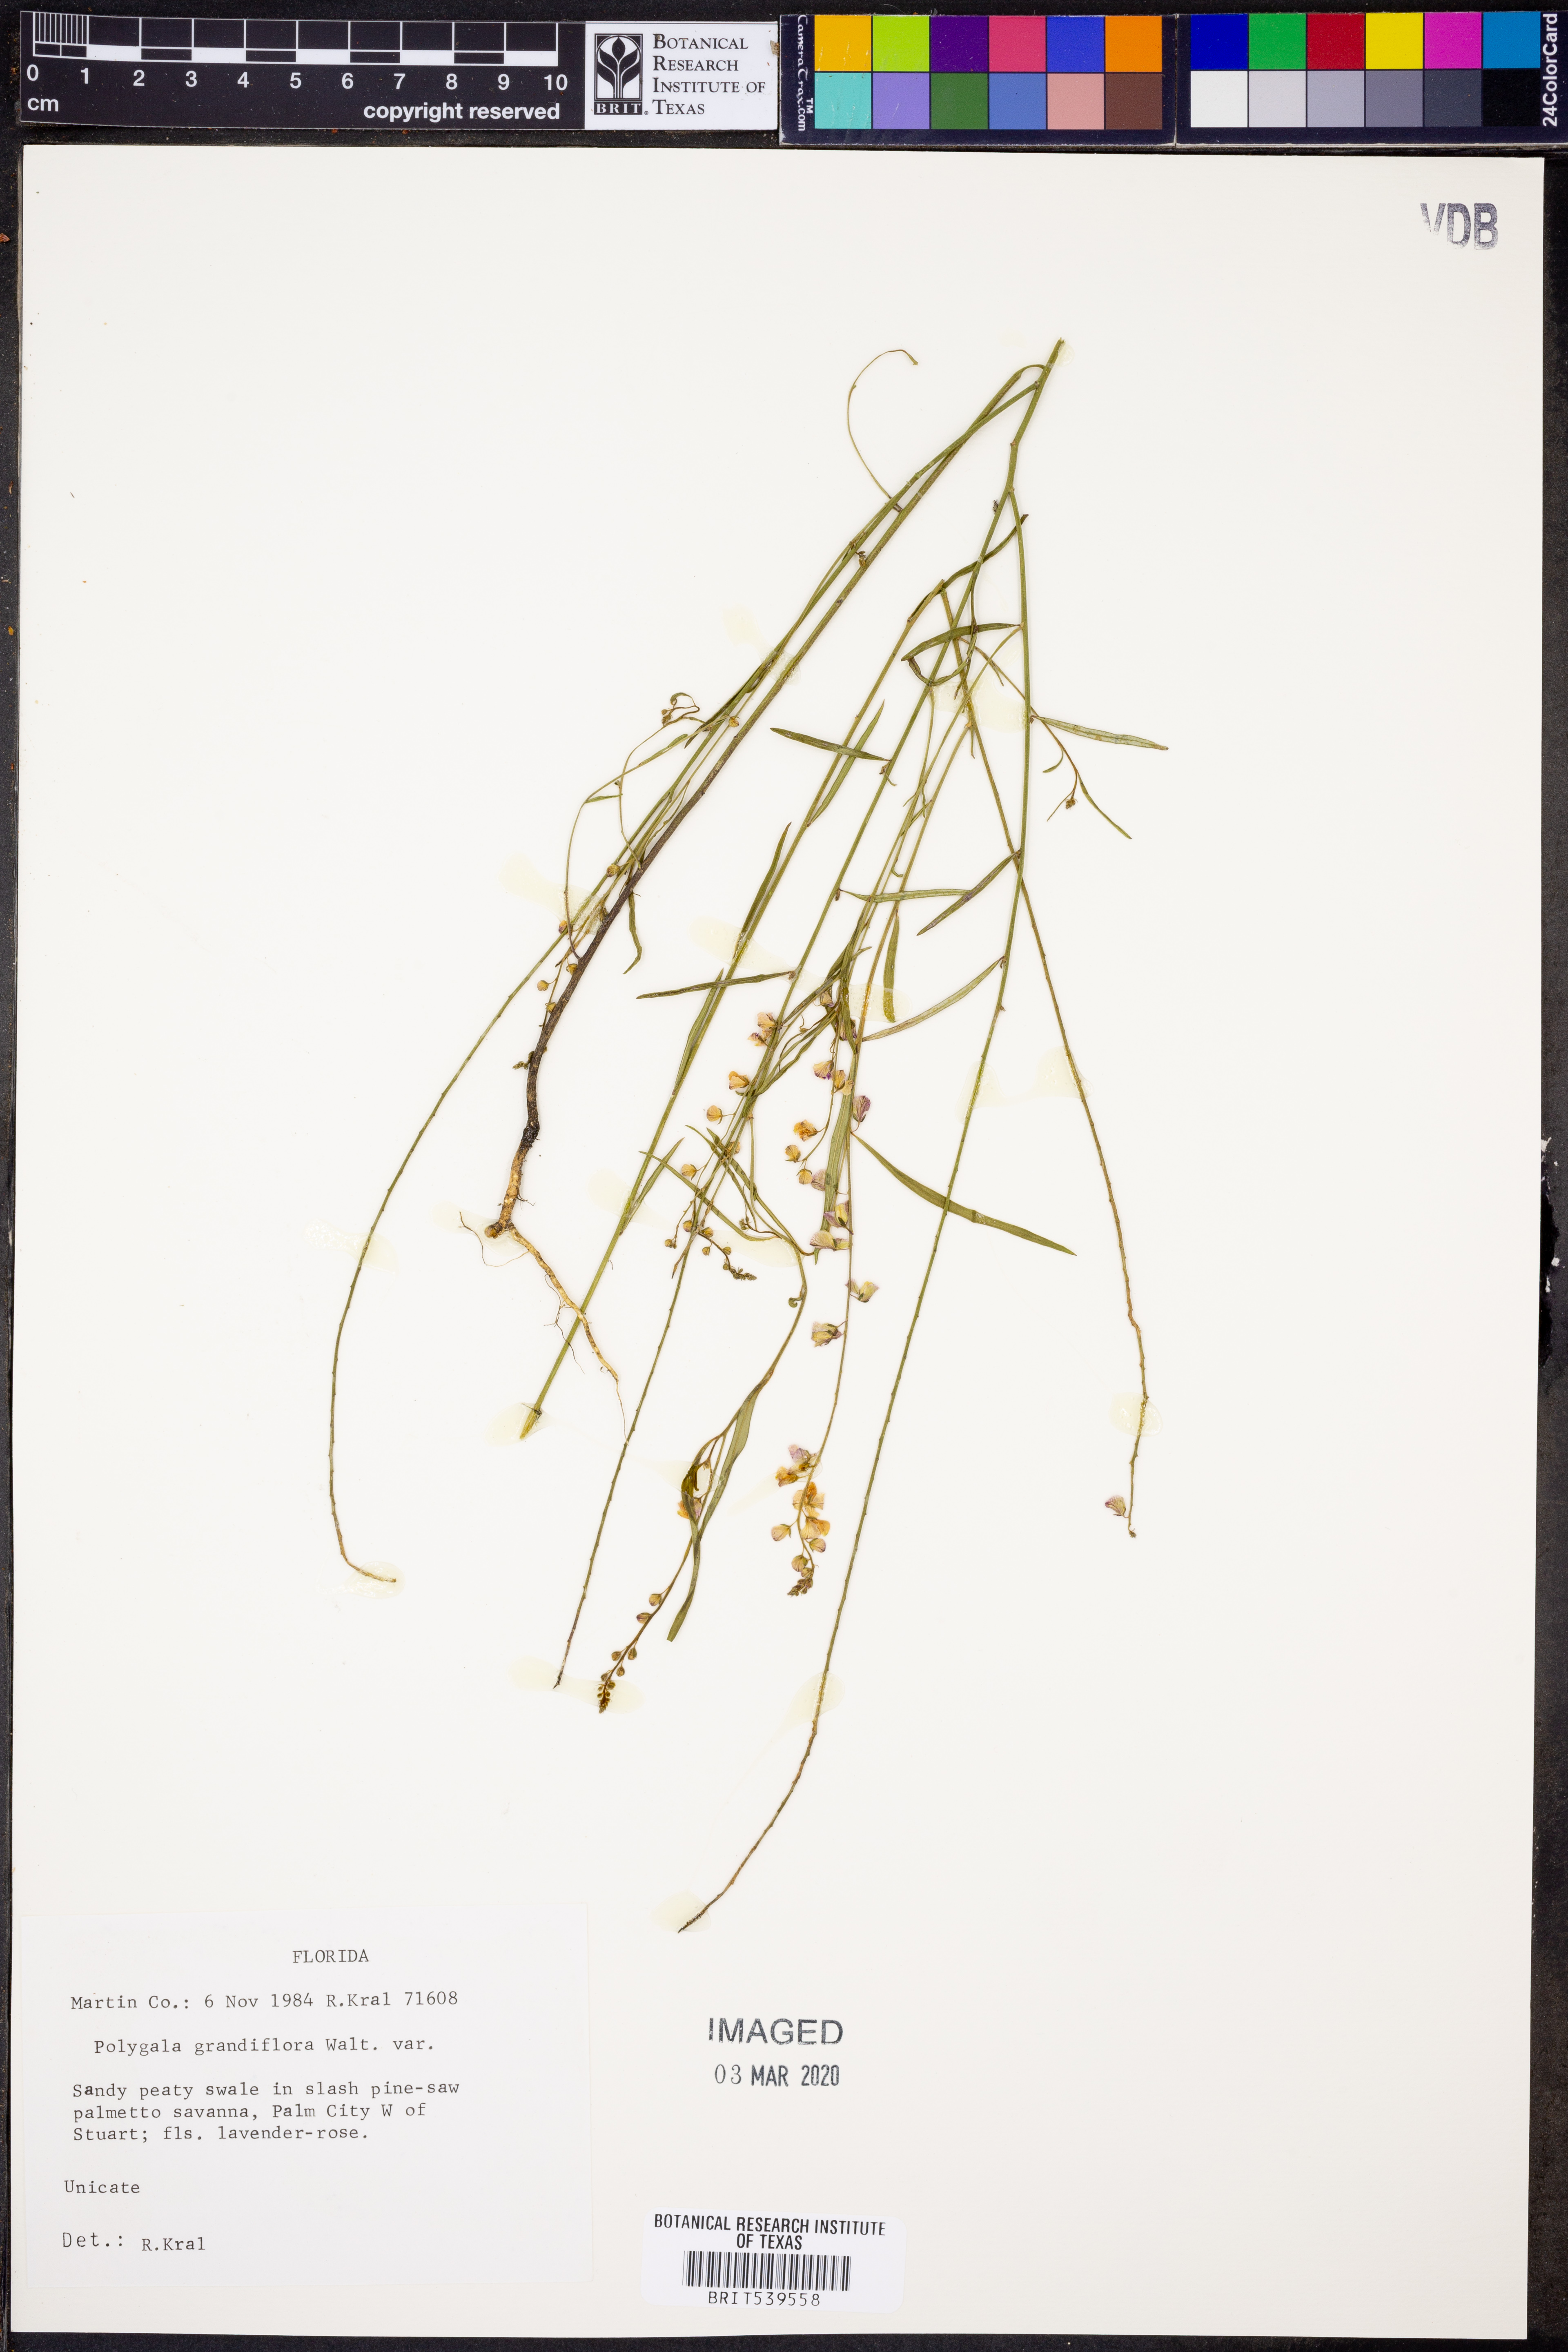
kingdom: Plantae
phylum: Tracheophyta
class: Magnoliopsida
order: Fabales
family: Polygalaceae
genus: Asemeia
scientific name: Asemeia grandiflora
